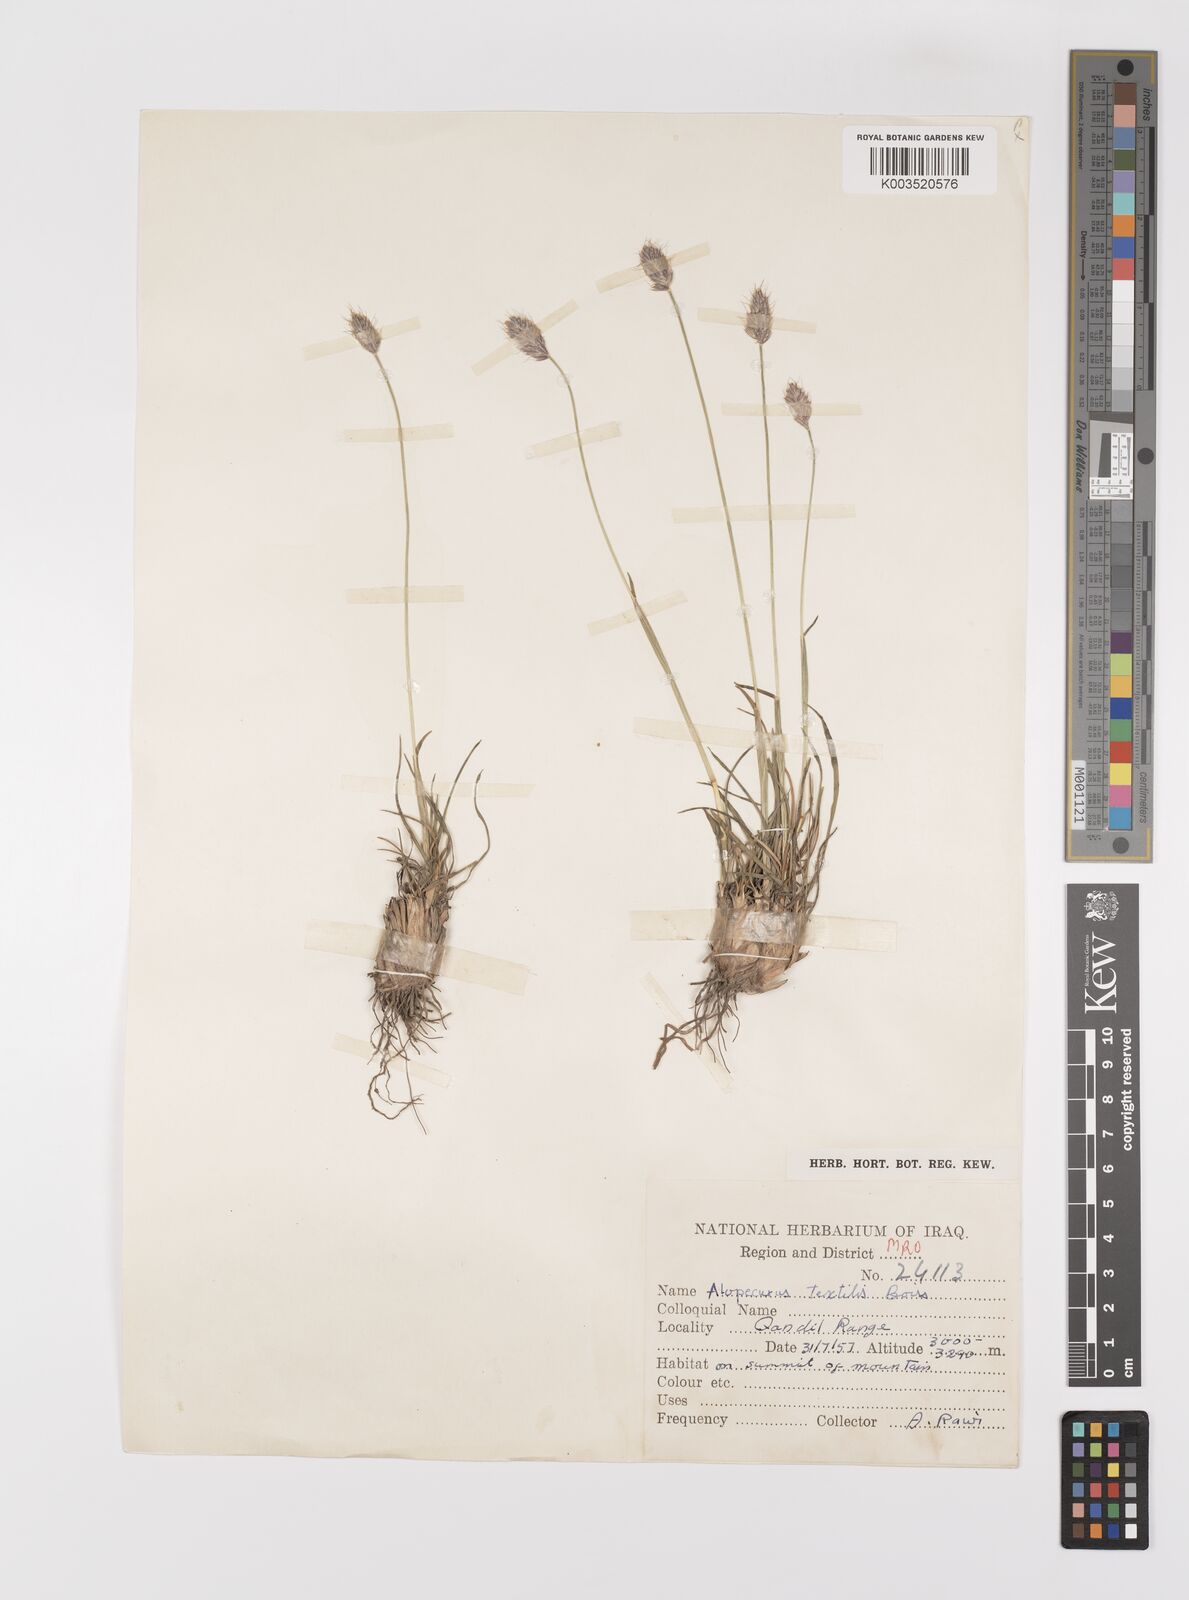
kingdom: Plantae
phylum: Tracheophyta
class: Liliopsida
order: Poales
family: Poaceae
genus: Alopecurus
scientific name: Alopecurus textilis
